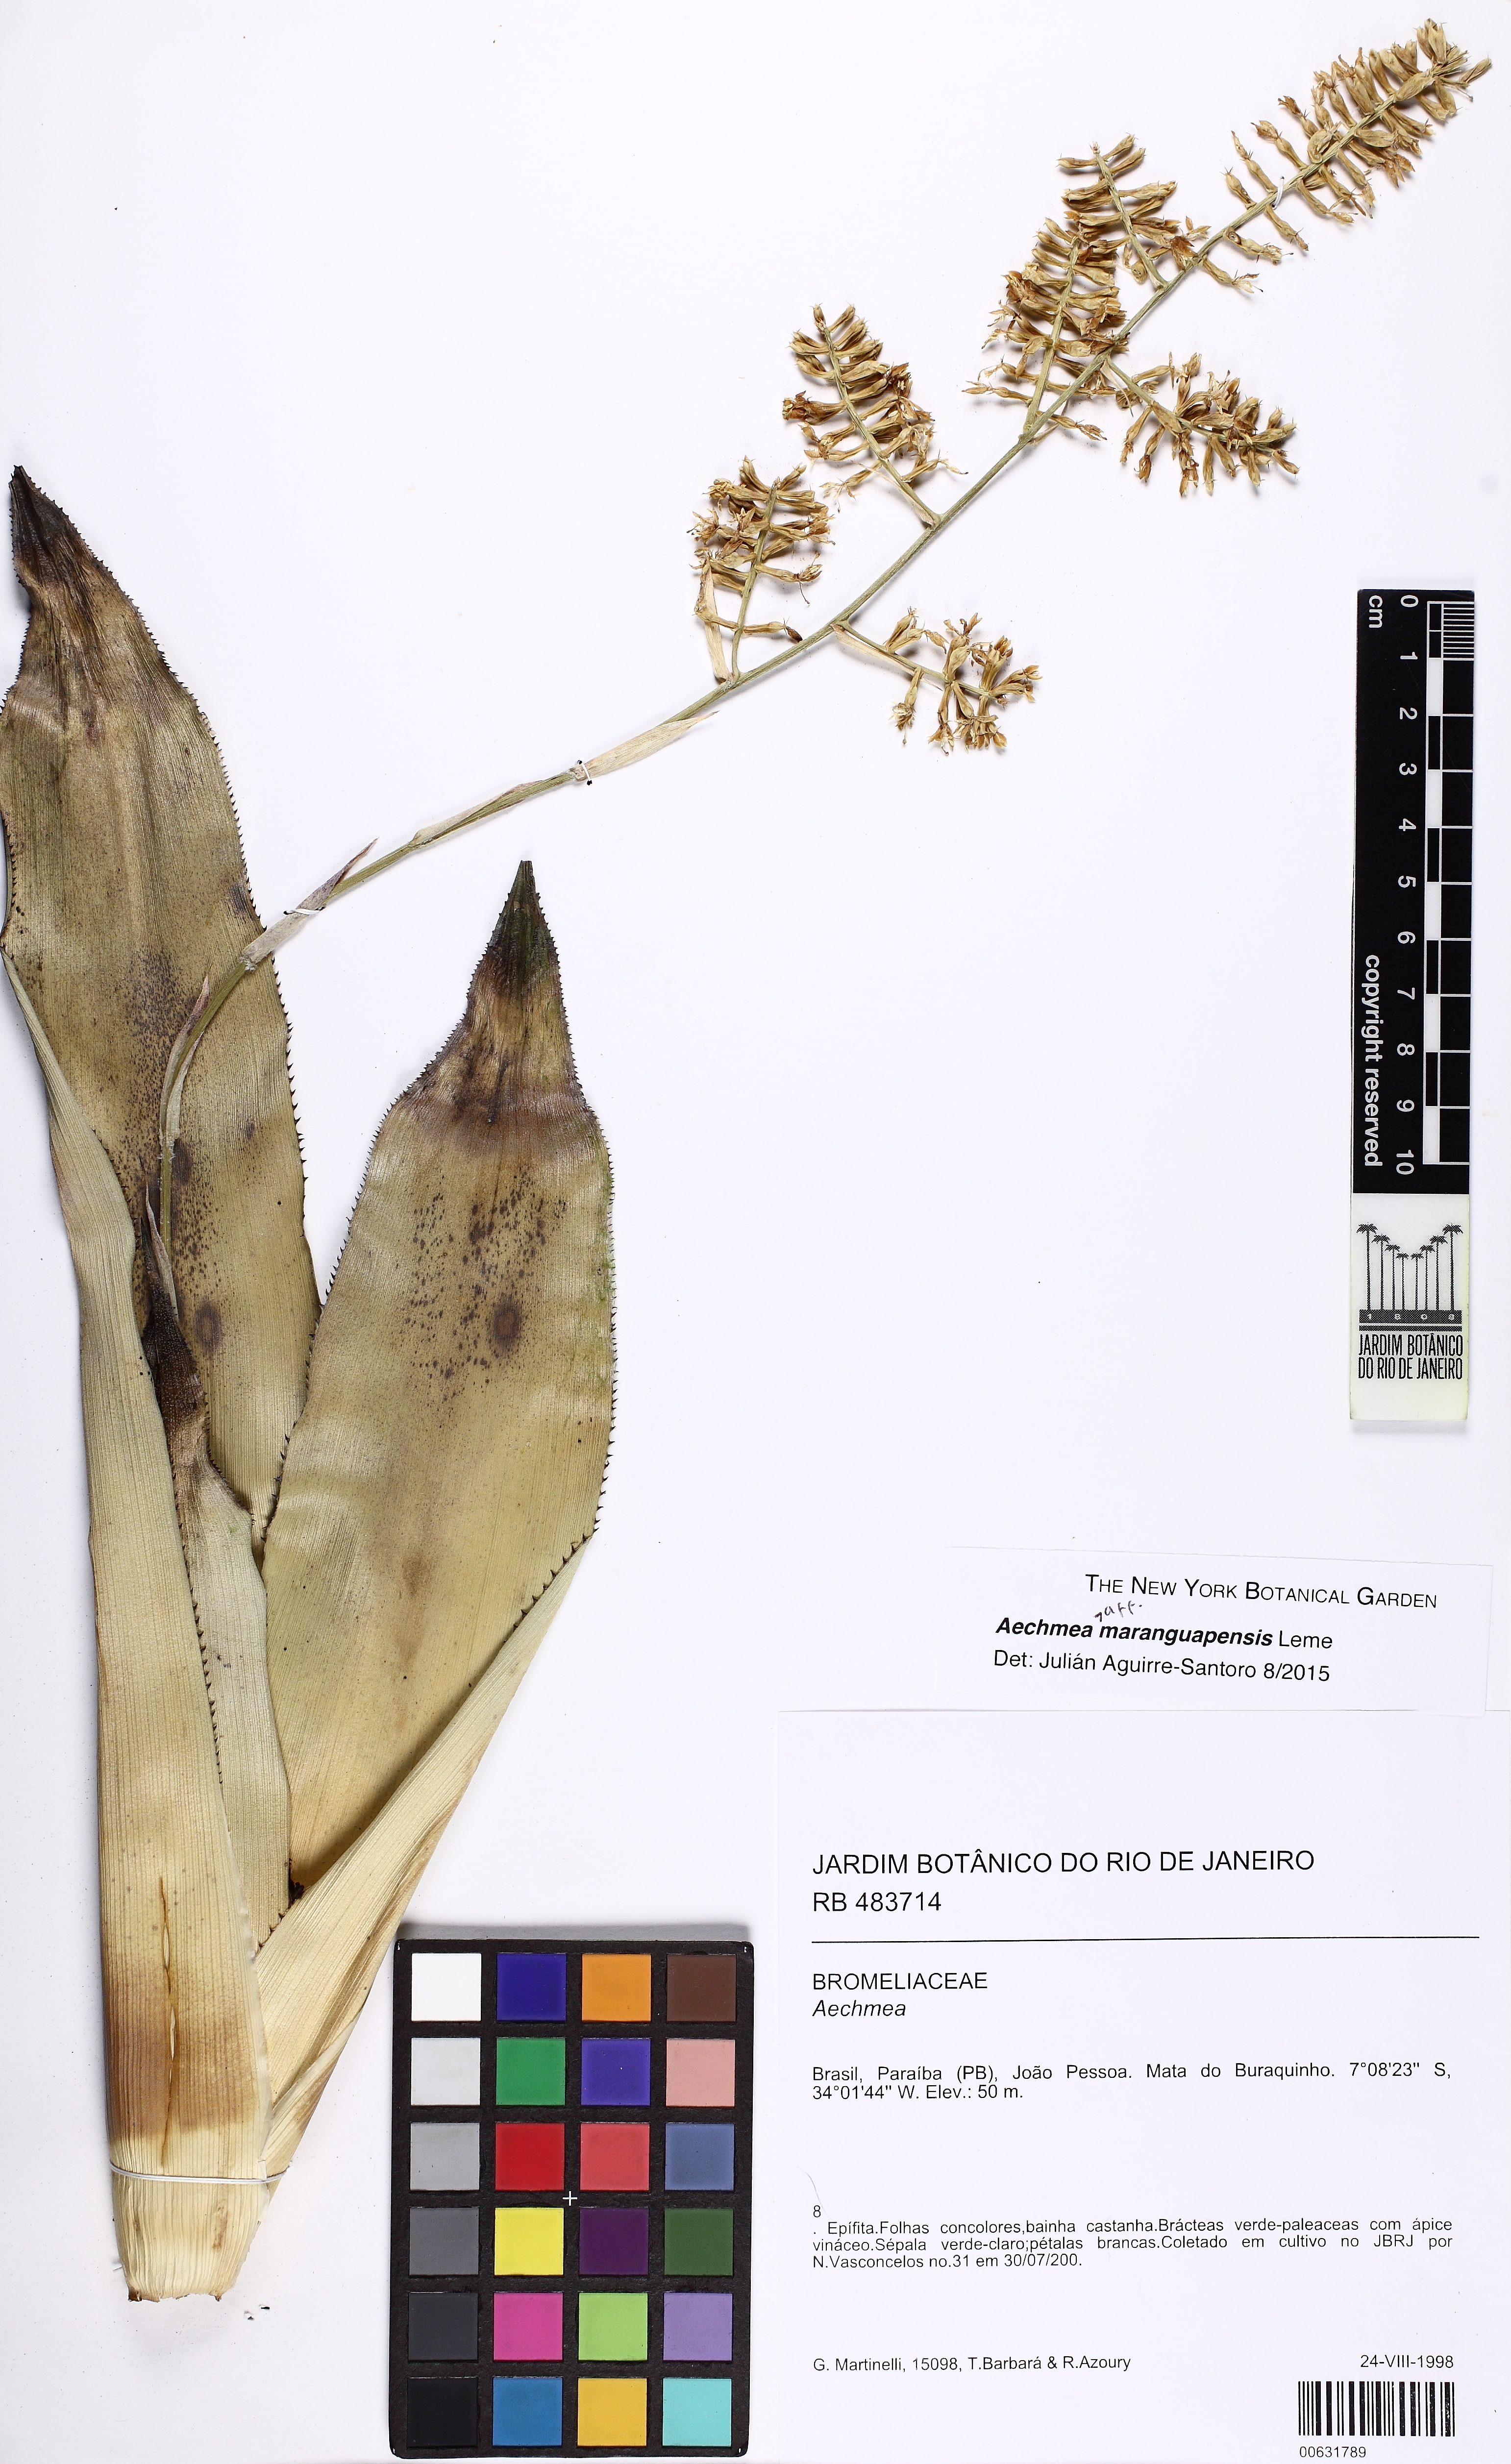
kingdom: Plantae
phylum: Tracheophyta
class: Liliopsida
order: Poales
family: Bromeliaceae
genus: Wittmackia
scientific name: Wittmackia maranguapensis
